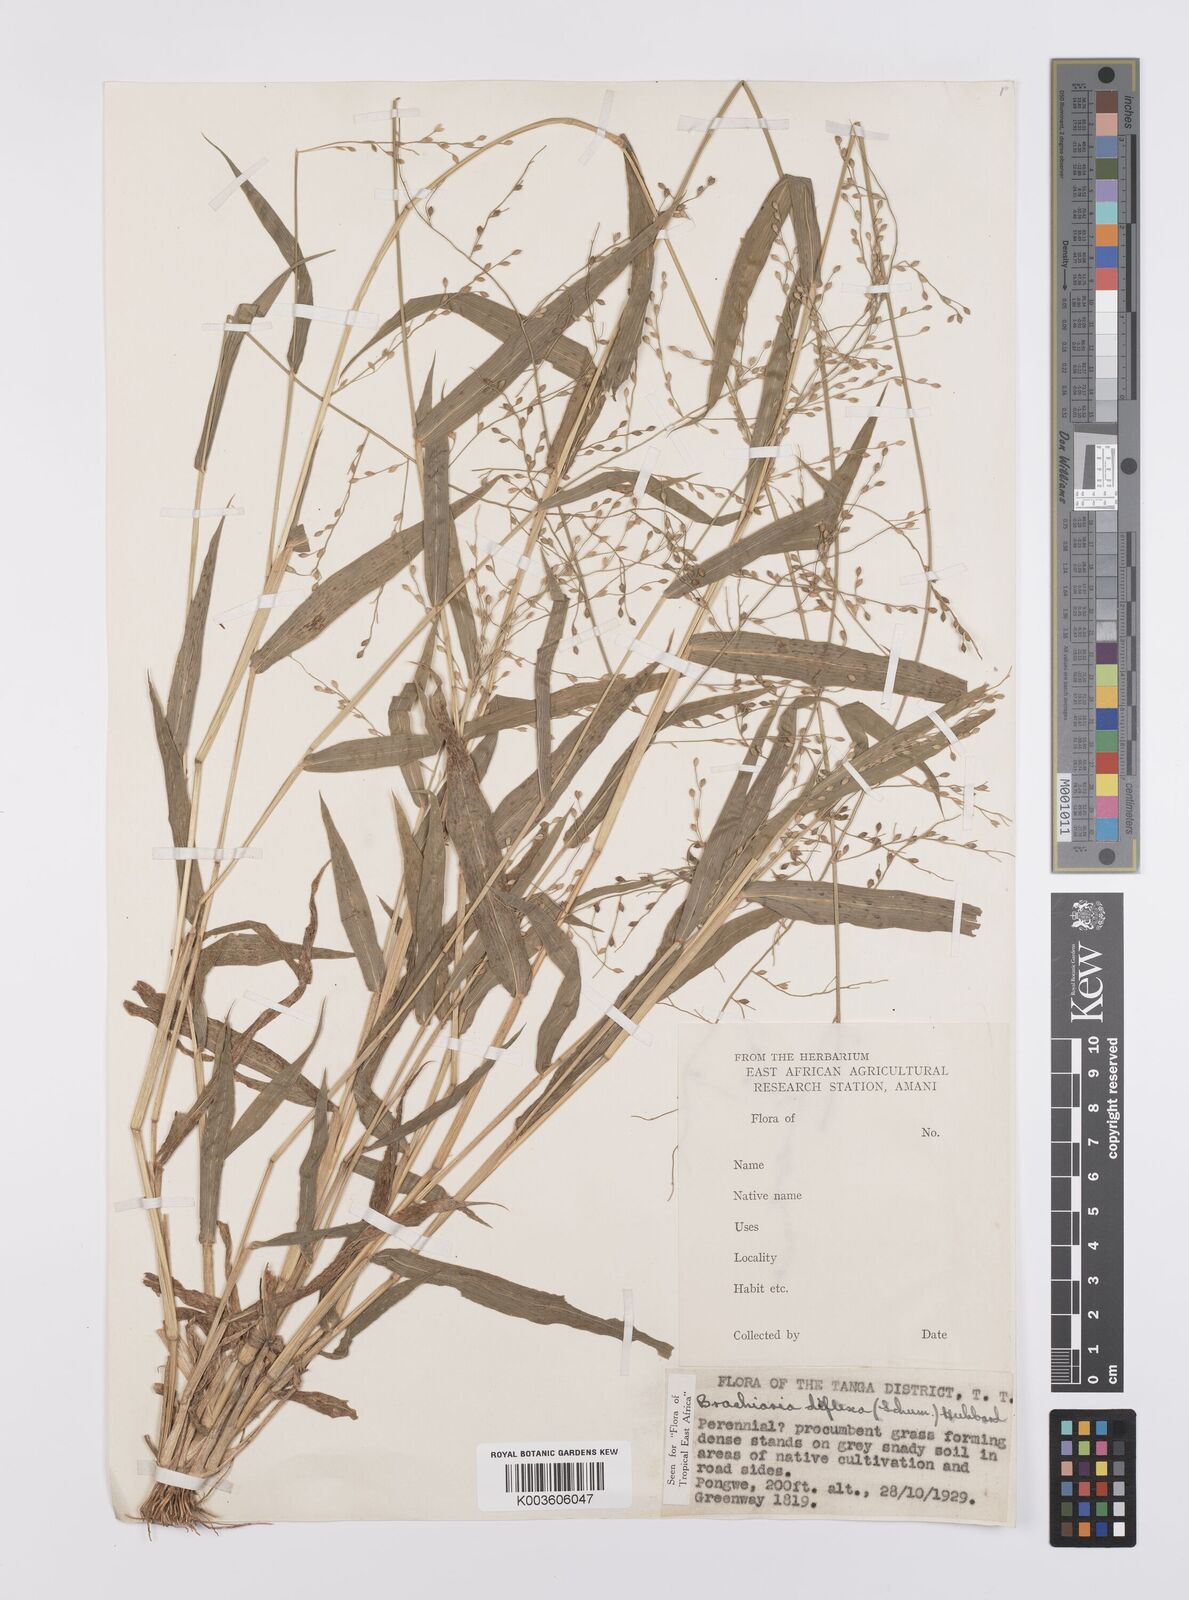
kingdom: Plantae
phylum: Tracheophyta
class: Liliopsida
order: Poales
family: Poaceae
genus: Urochloa
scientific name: Urochloa deflexa
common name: Guinea millet
